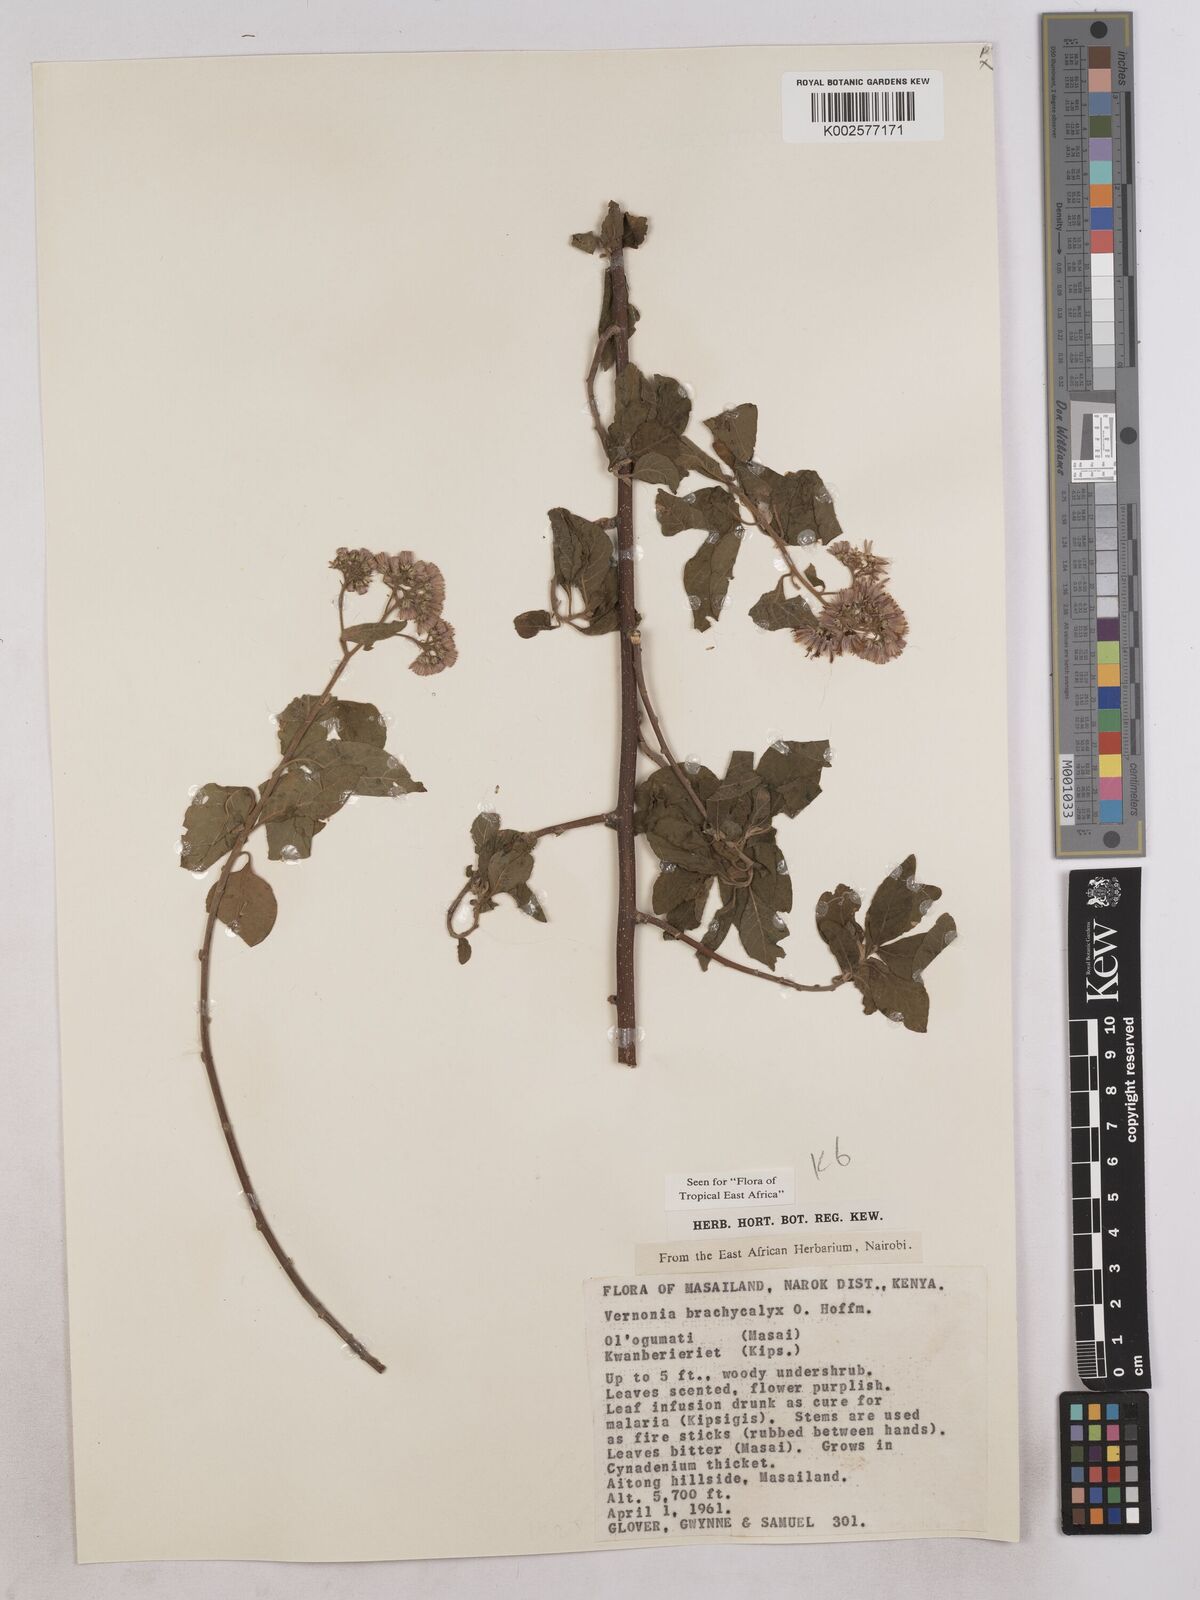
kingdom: Plantae
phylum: Tracheophyta
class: Magnoliopsida
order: Asterales
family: Asteraceae
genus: Hoffmannanthus
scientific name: Hoffmannanthus abbotianus
